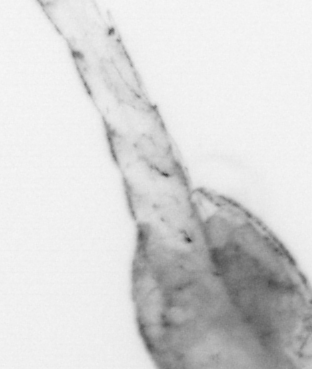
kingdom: Animalia
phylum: Arthropoda
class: Malacostraca
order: Decapoda
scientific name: Decapoda
